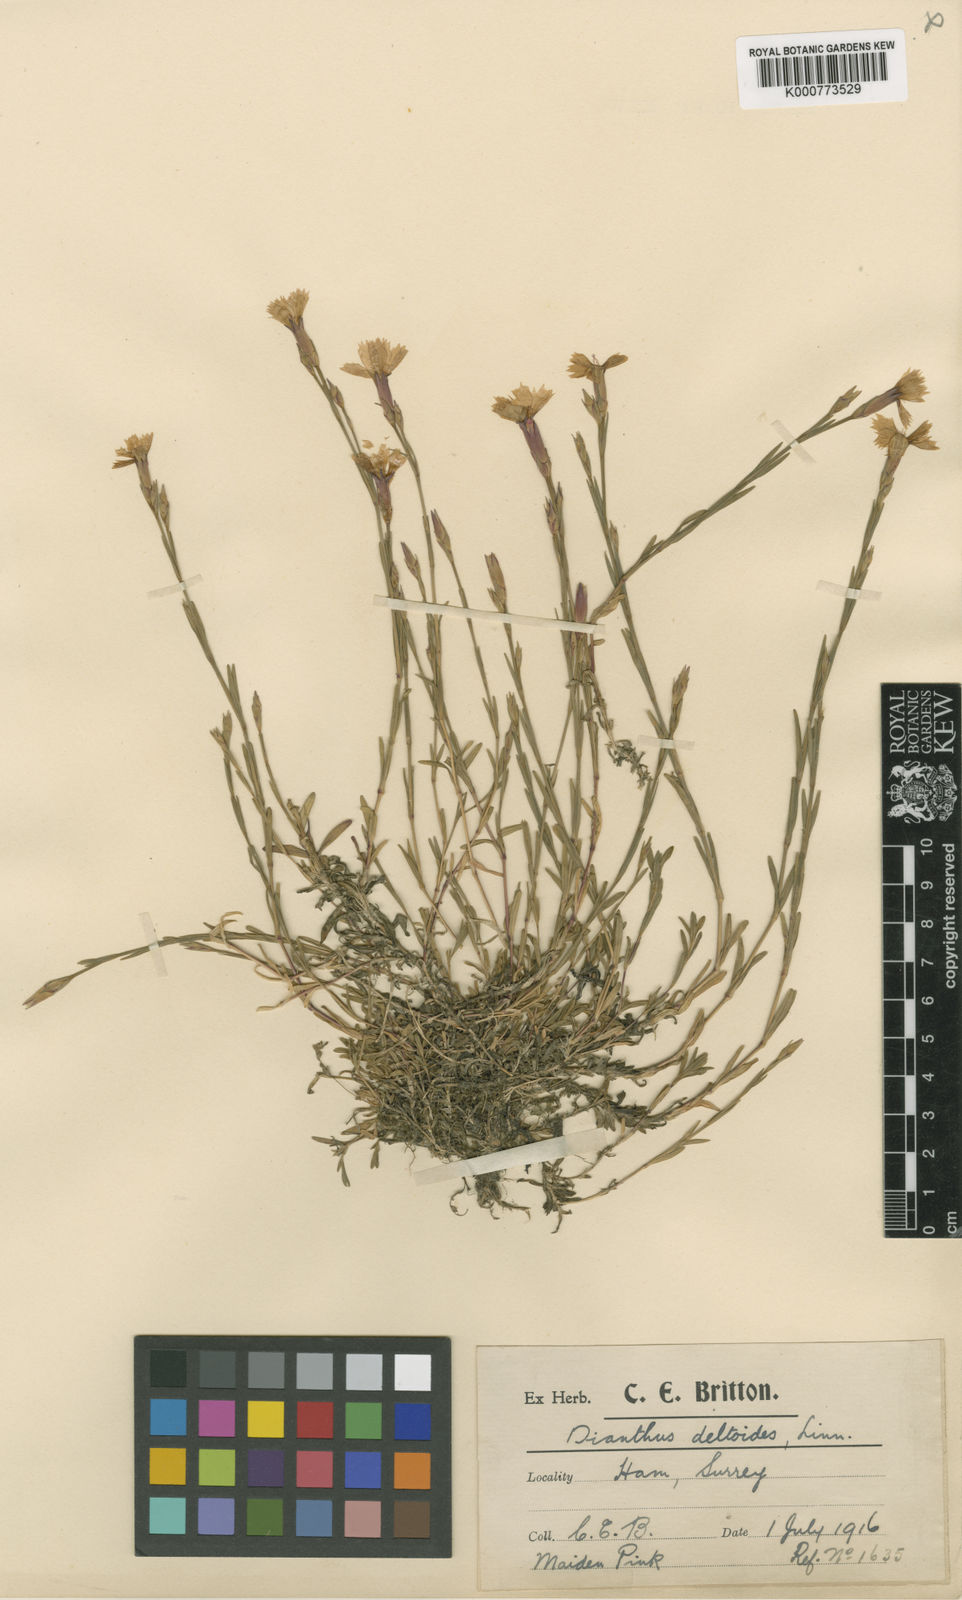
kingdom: Plantae
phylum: Tracheophyta
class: Magnoliopsida
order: Caryophyllales
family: Caryophyllaceae
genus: Dianthus
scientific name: Dianthus deltoides
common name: Maiden pink
